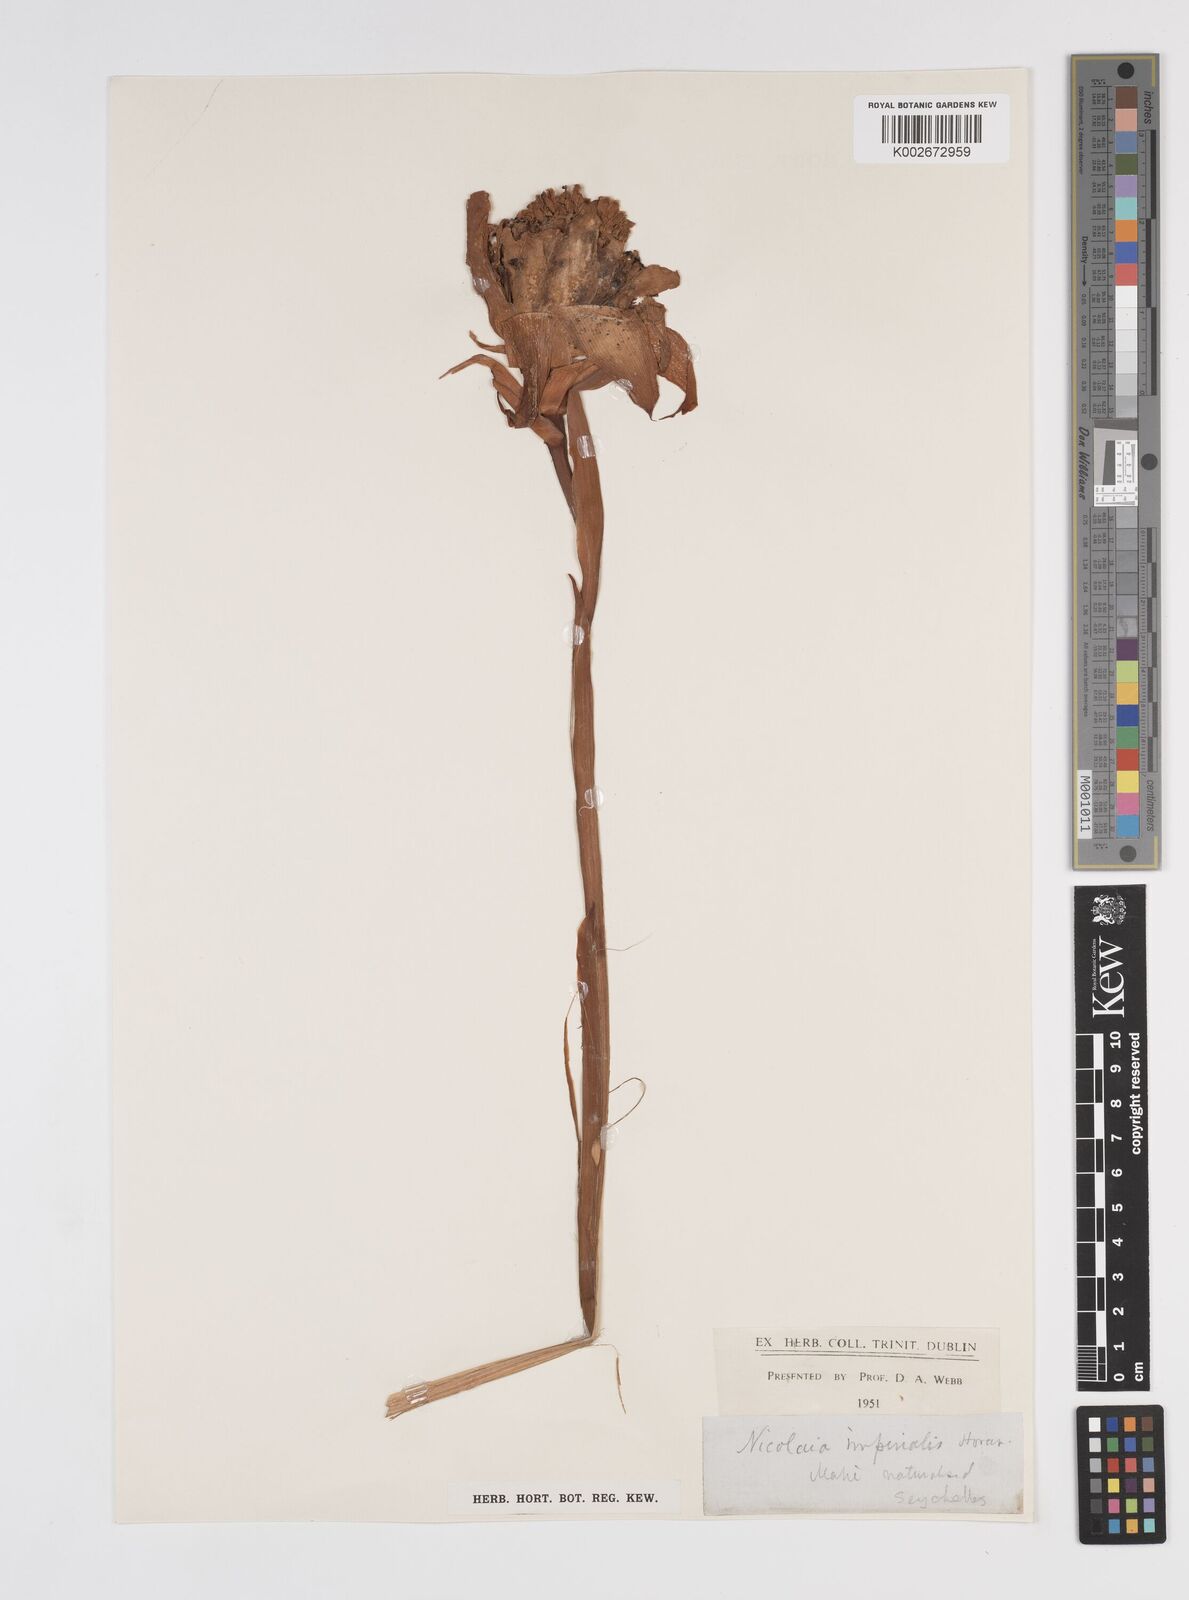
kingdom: Plantae
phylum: Tracheophyta
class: Liliopsida
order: Zingiberales
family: Zingiberaceae
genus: Etlingera
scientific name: Etlingera elatior
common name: Philippine waxflower
